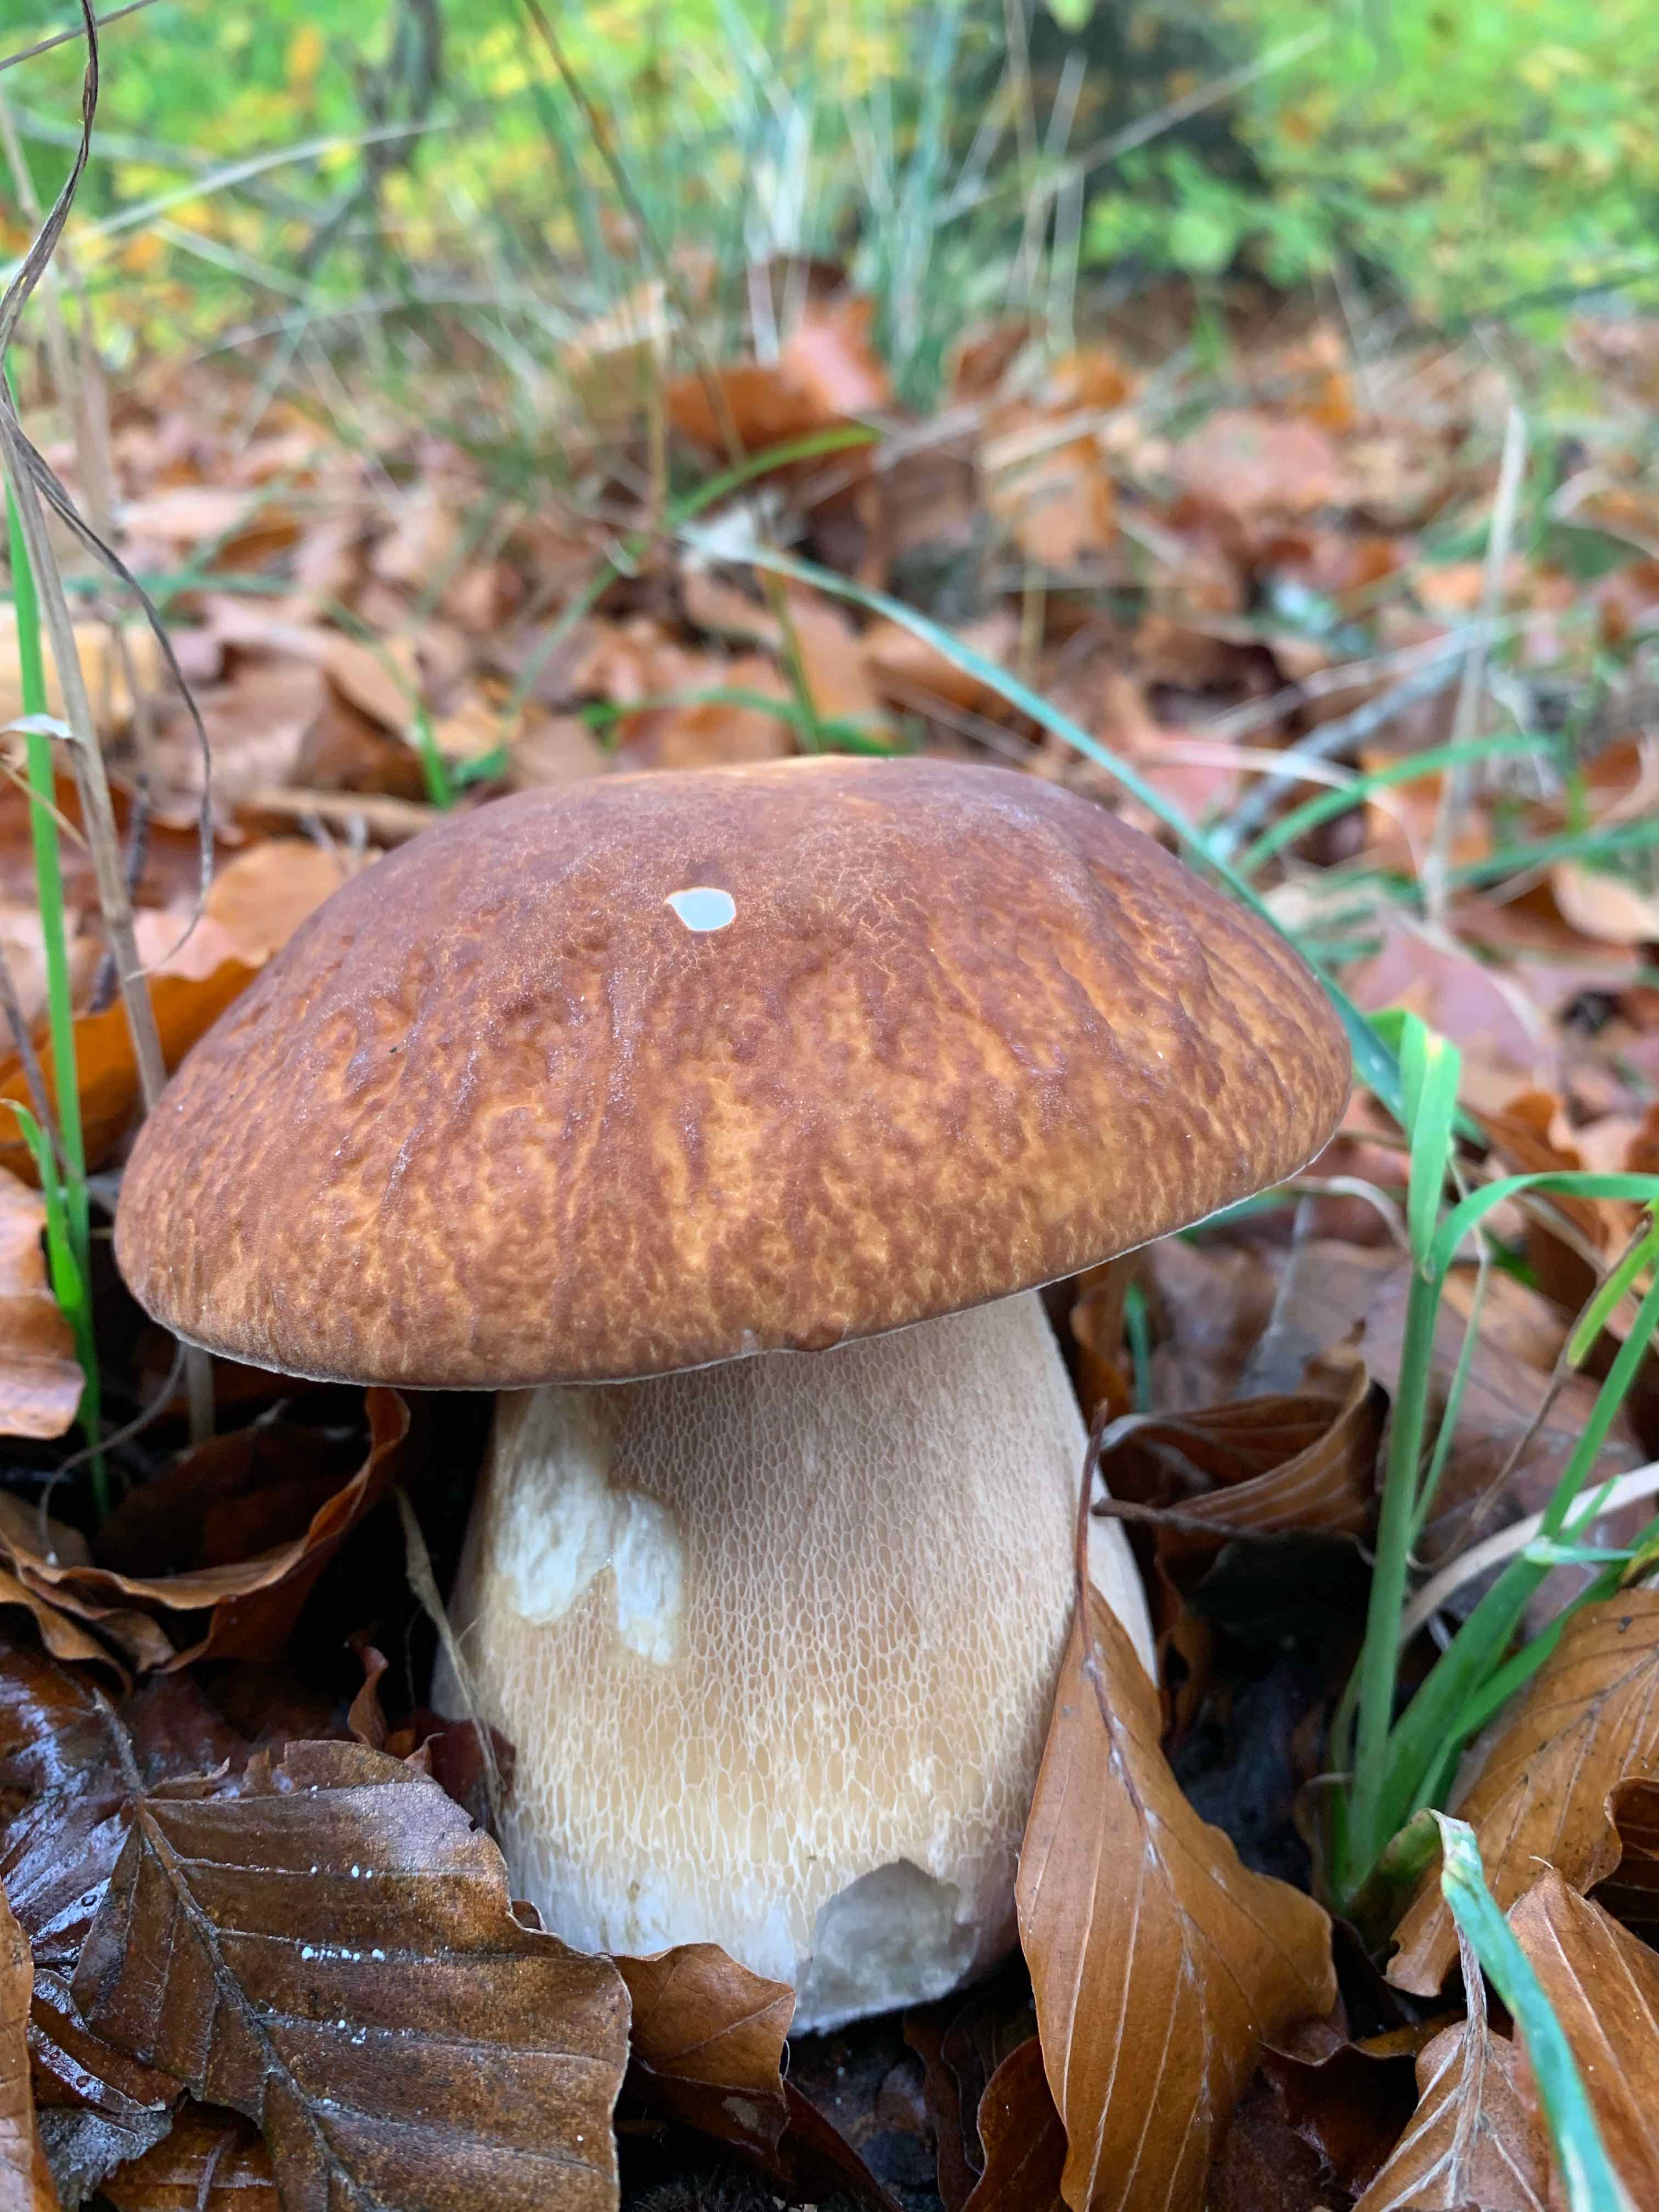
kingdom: Fungi
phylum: Basidiomycota
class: Agaricomycetes
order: Boletales
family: Boletaceae
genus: Boletus
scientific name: Boletus edulis
